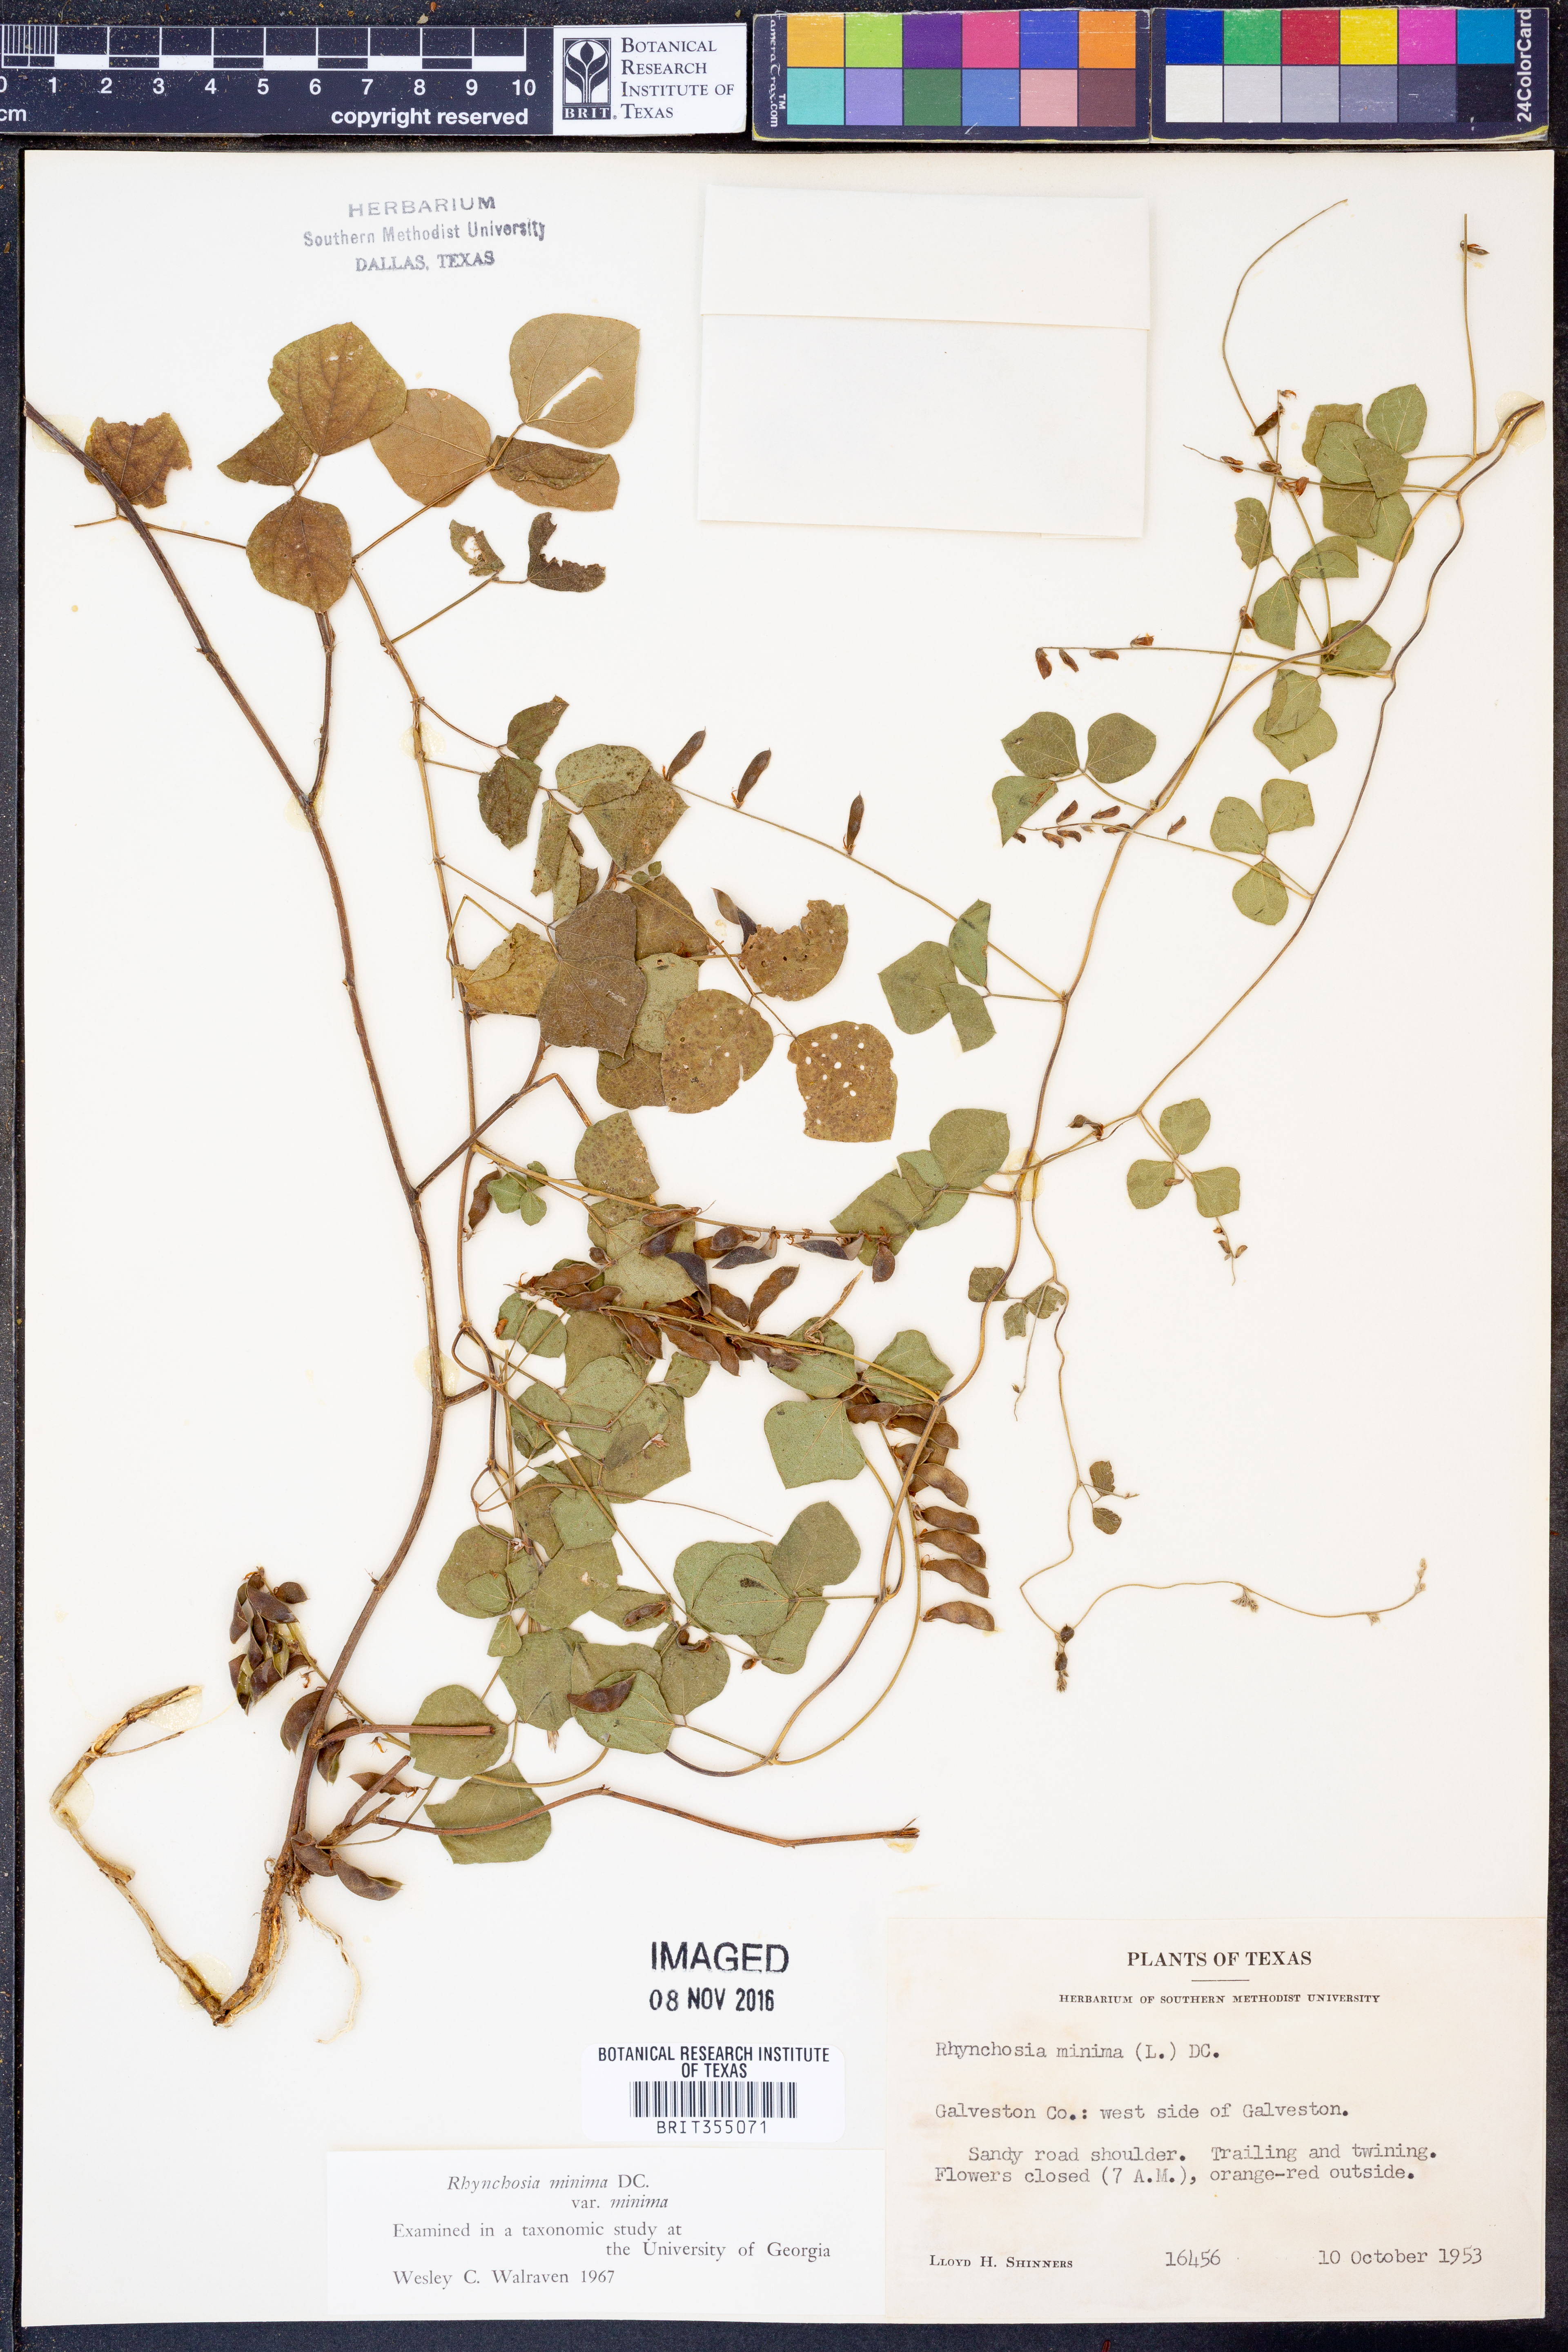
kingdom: Plantae
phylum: Tracheophyta
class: Magnoliopsida
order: Fabales
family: Fabaceae
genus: Rhynchosia
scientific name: Rhynchosia minima
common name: Least snoutbean
